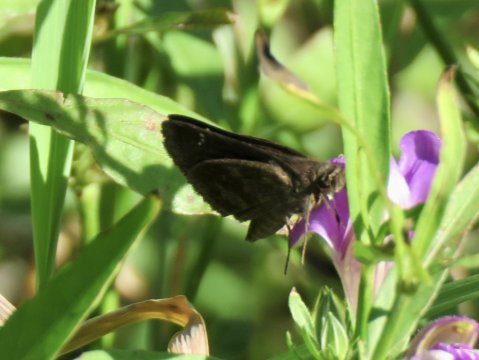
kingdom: Animalia
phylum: Arthropoda
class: Insecta
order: Lepidoptera
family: Hesperiidae
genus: Cymaenes
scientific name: Cymaenes odilia
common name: Fawn-spotted Skipper
